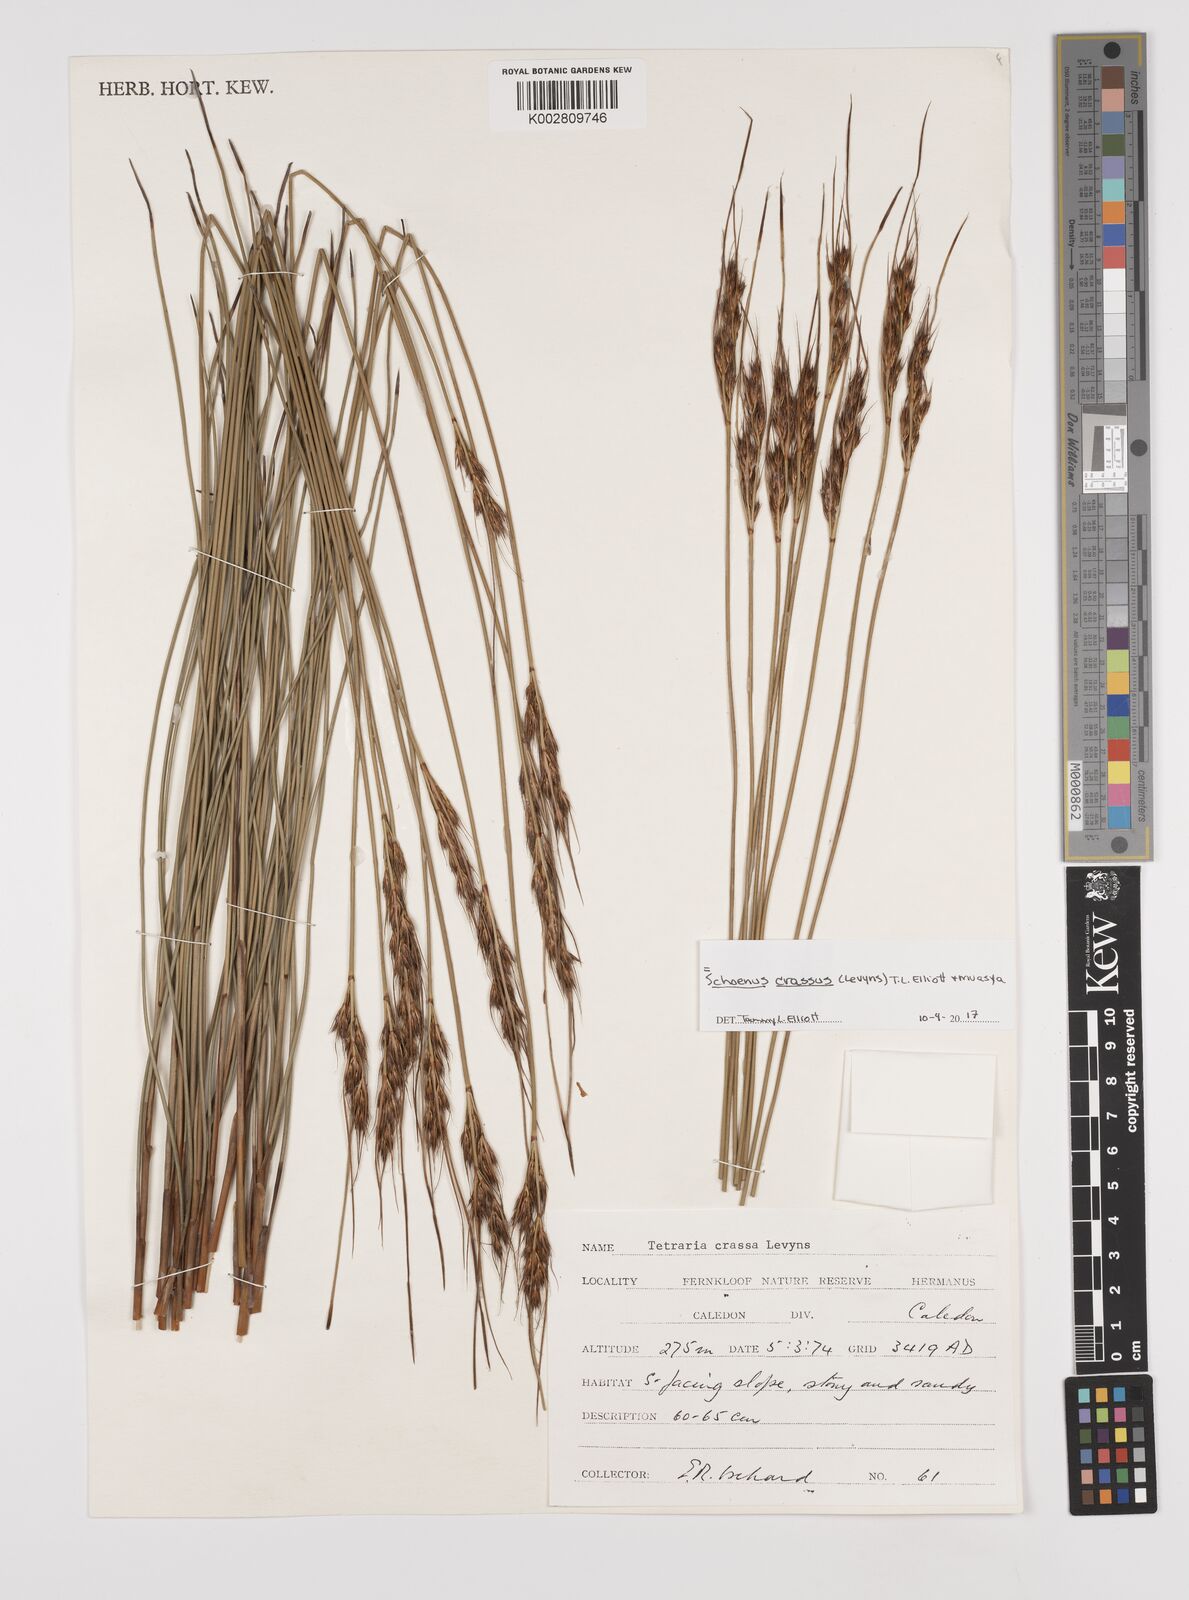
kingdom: Plantae
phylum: Tracheophyta
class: Liliopsida
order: Poales
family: Cyperaceae
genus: Schoenus
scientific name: Schoenus crassus
